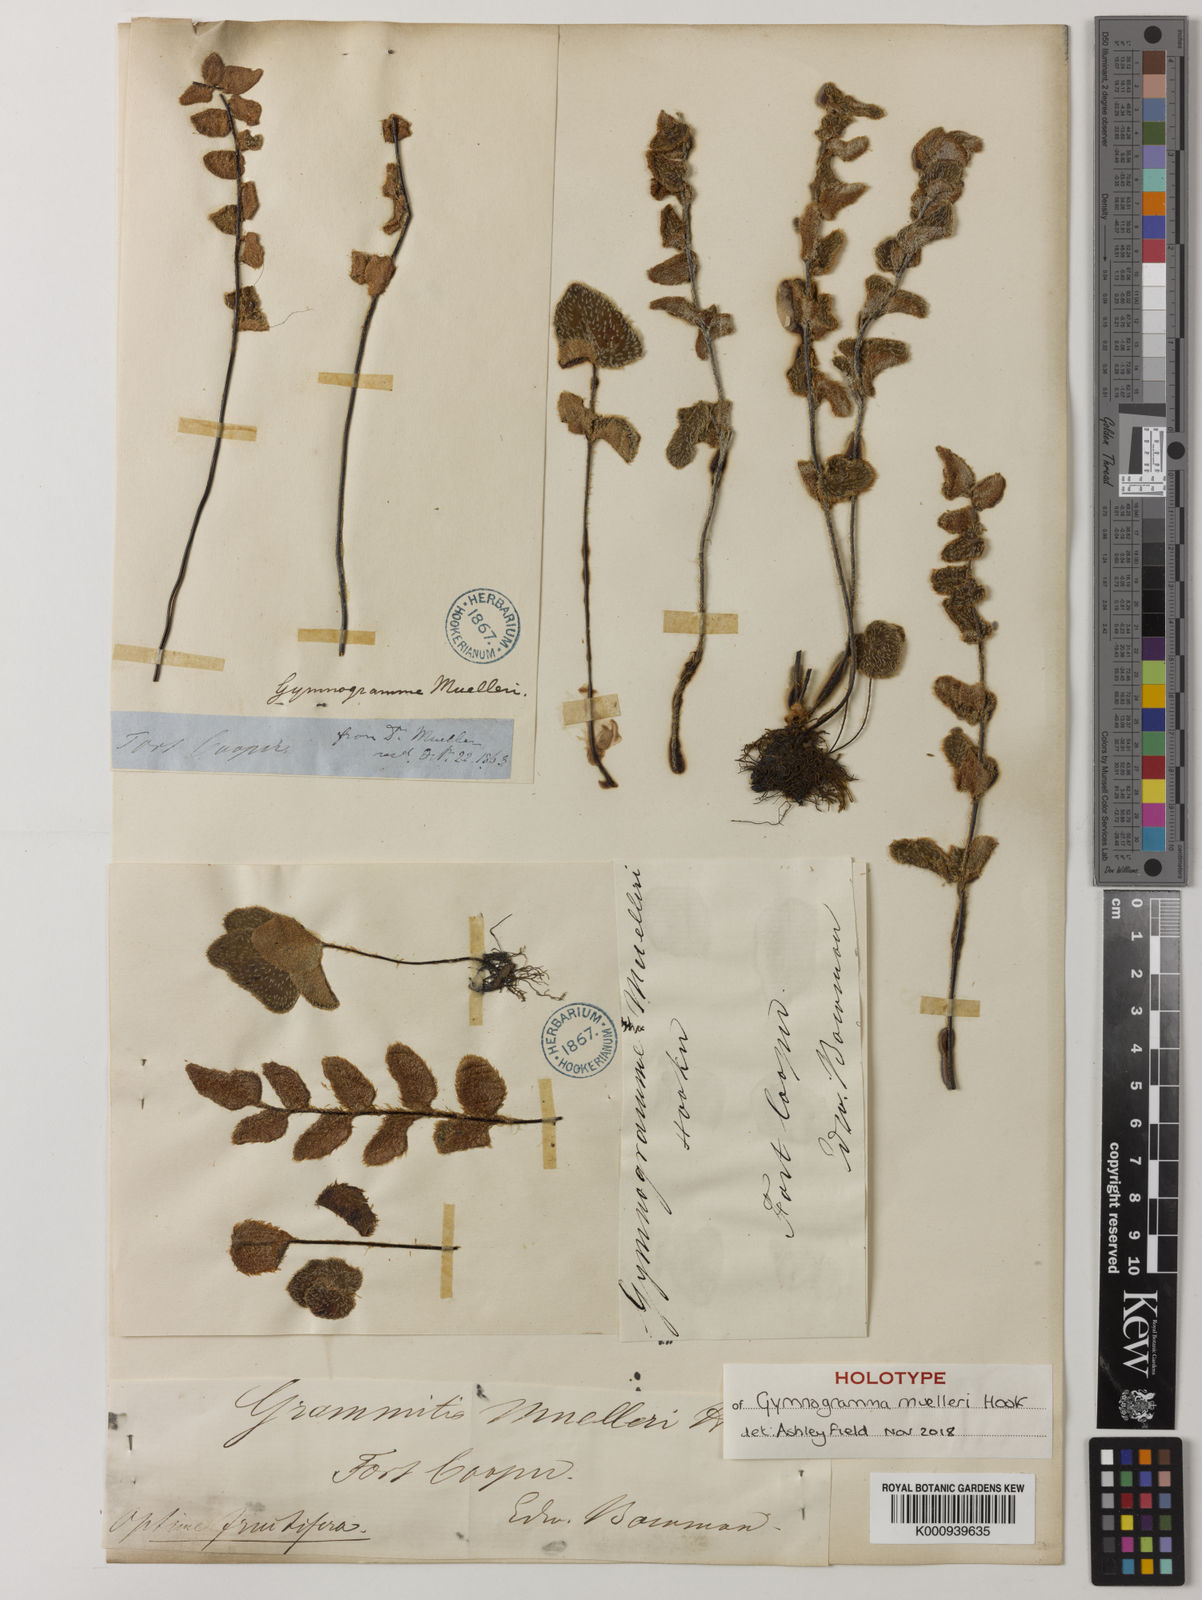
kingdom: Plantae
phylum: Tracheophyta
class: Polypodiopsida
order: Polypodiales
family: Pteridaceae
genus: Pellaea
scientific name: Pellaea muelleri
